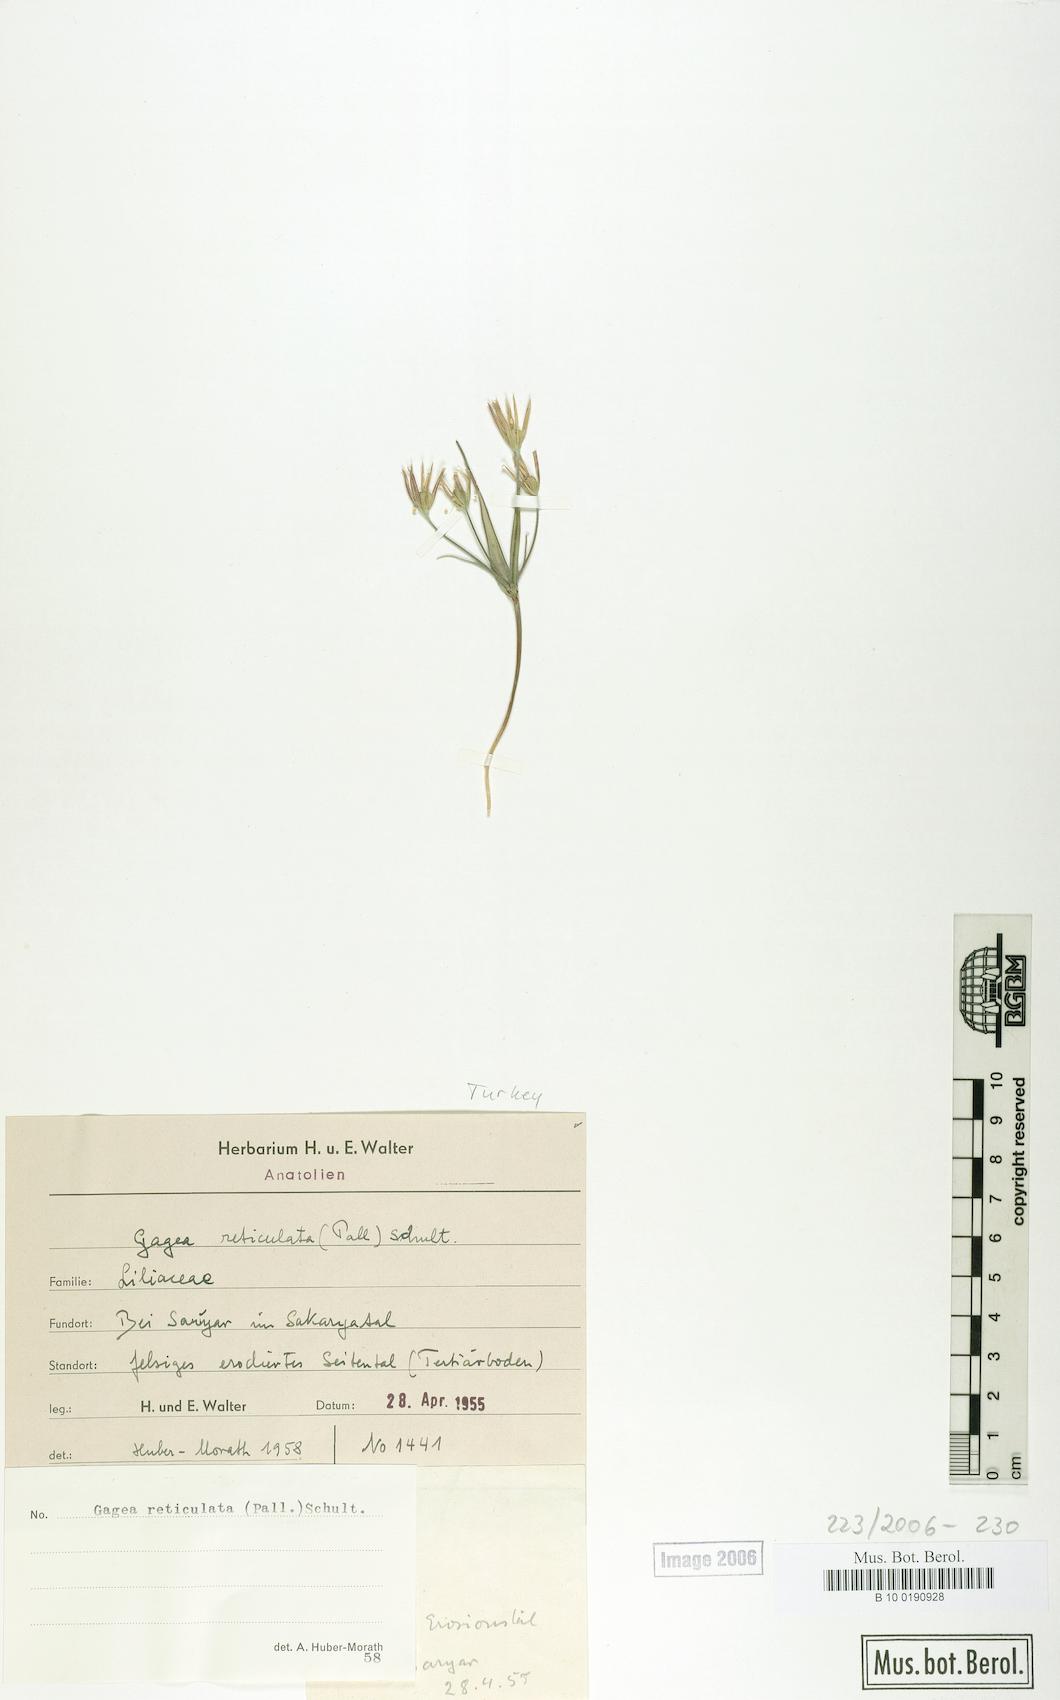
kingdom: Plantae
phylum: Tracheophyta
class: Liliopsida
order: Liliales
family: Liliaceae
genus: Gagea
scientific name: Gagea reticulata
